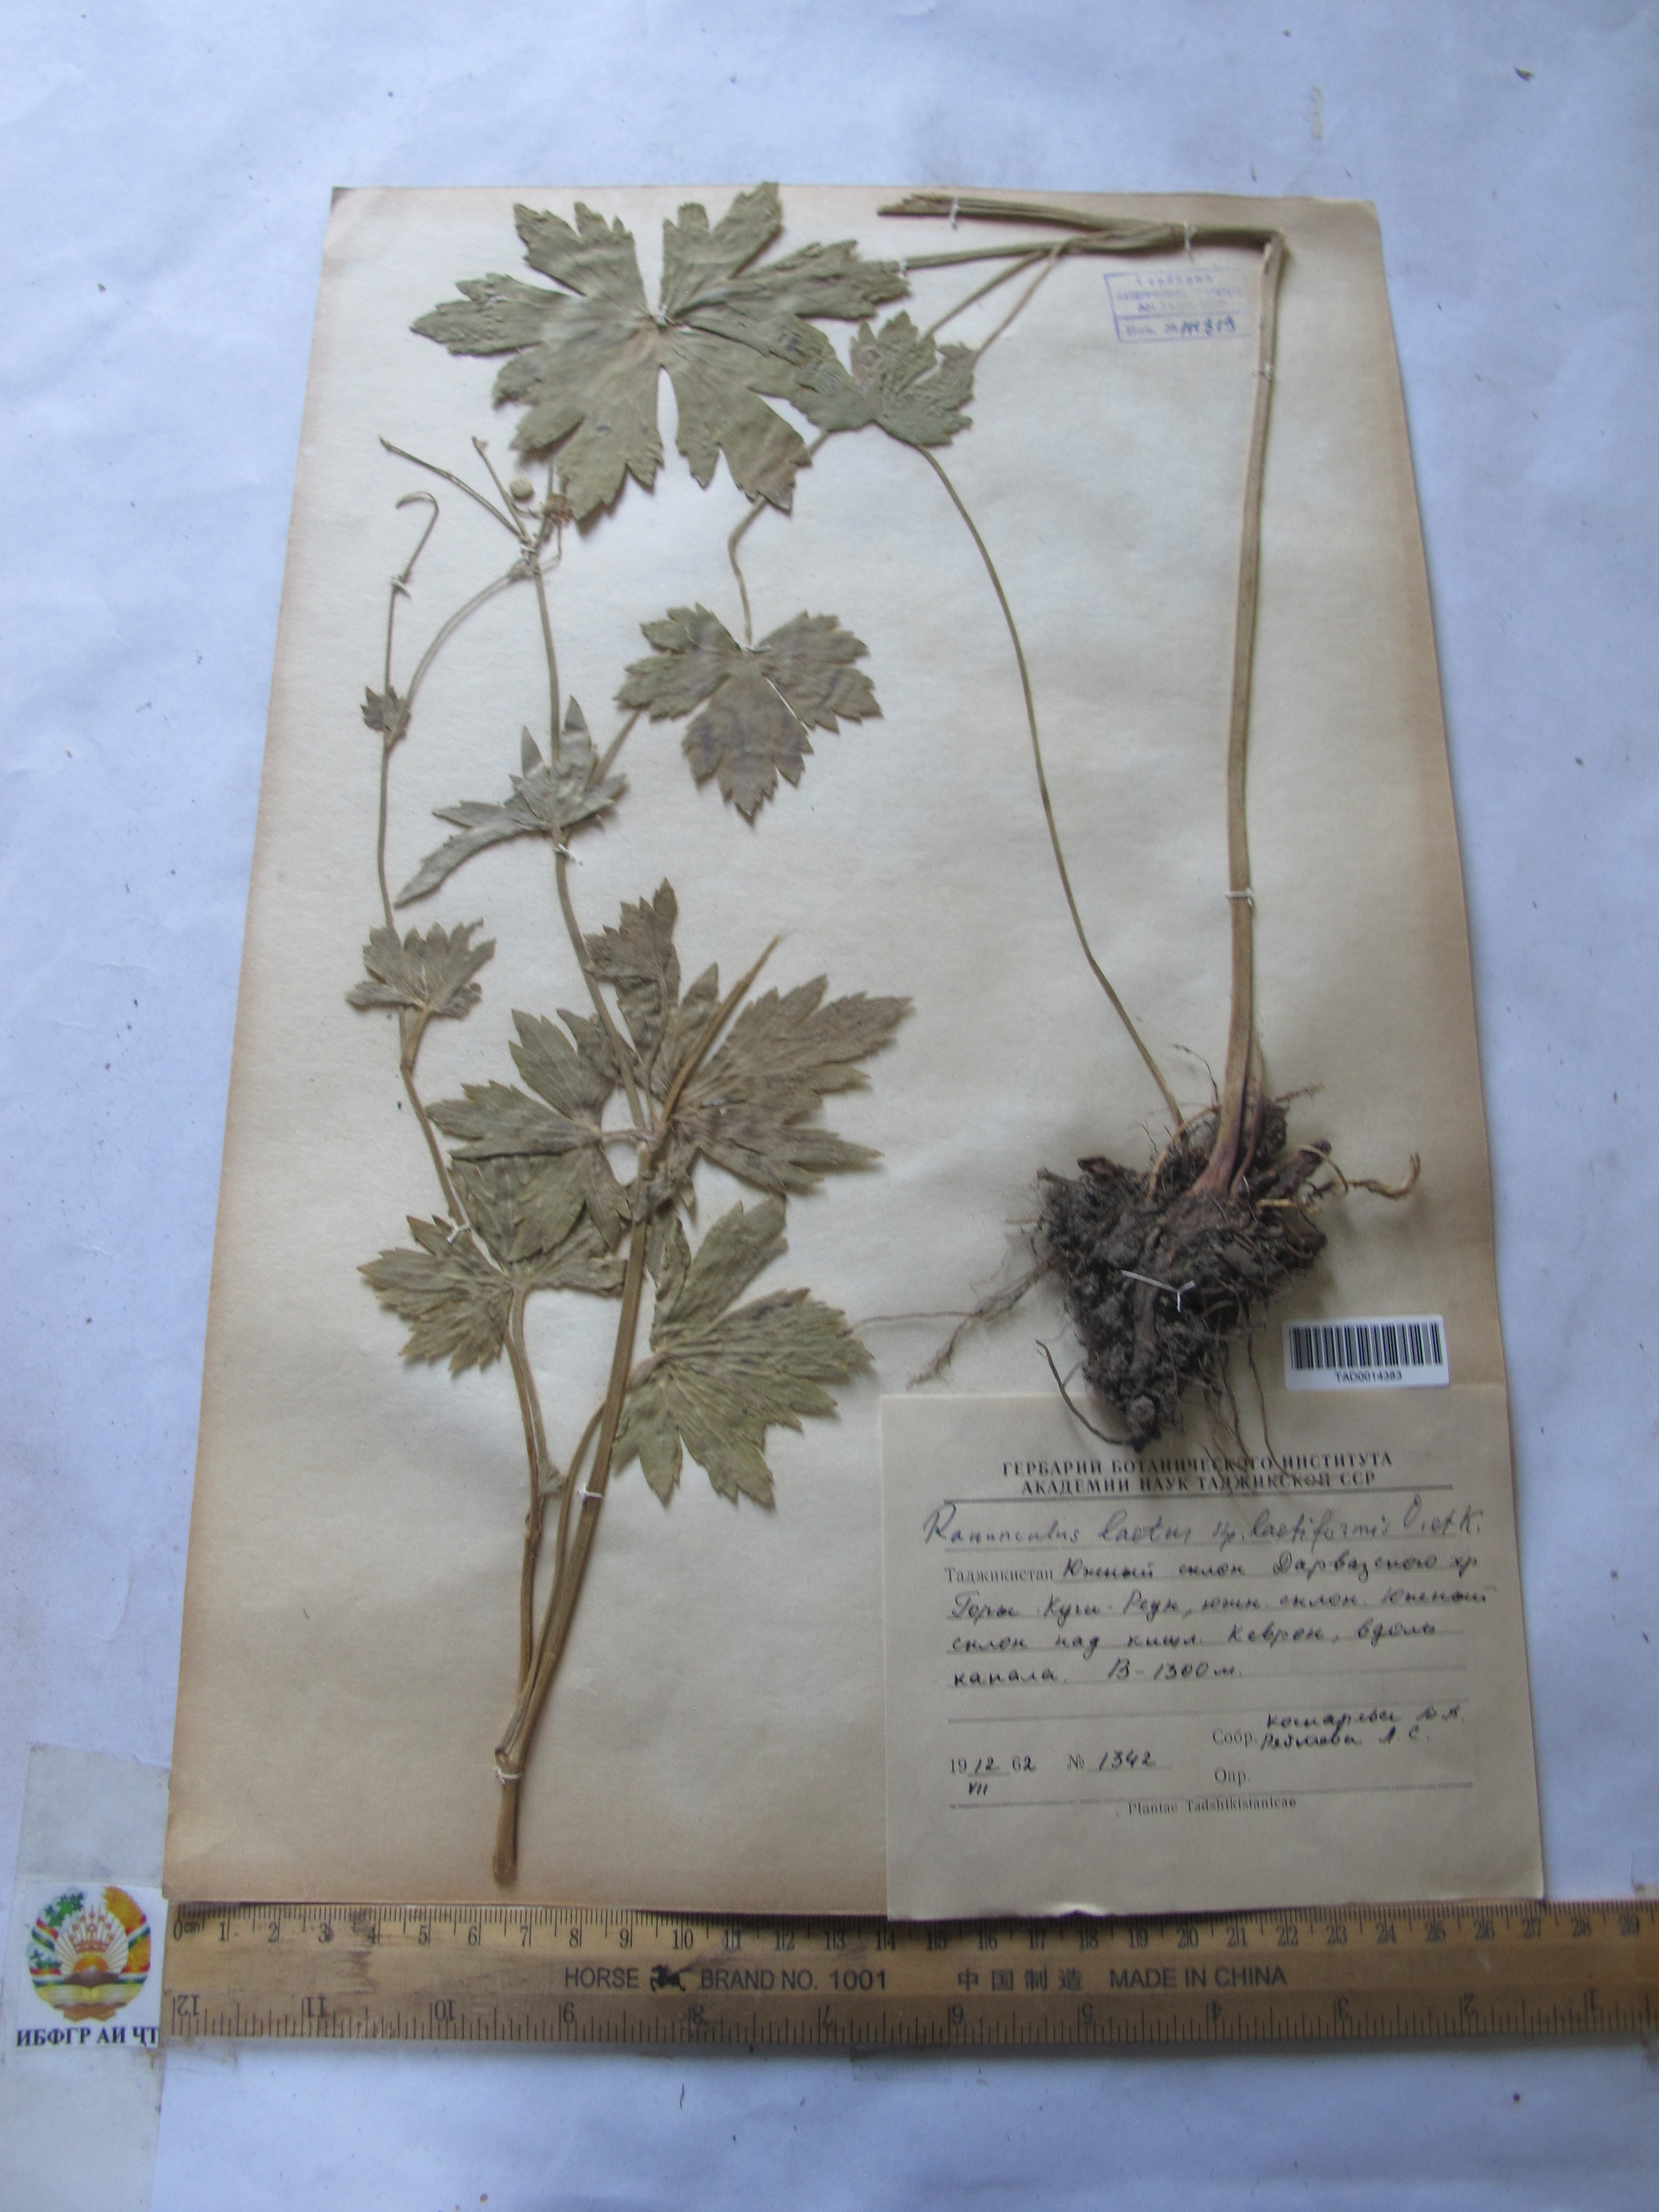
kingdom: Plantae
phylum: Tracheophyta
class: Magnoliopsida
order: Ranunculales
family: Ranunculaceae
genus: Ranunculus
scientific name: Ranunculus distans
